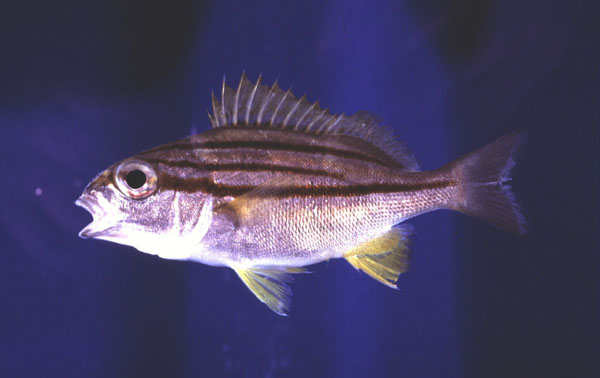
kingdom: Animalia
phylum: Chordata
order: Perciformes
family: Haemulidae
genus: Pomadasys
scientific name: Pomadasys striatus
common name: Striped grunter
